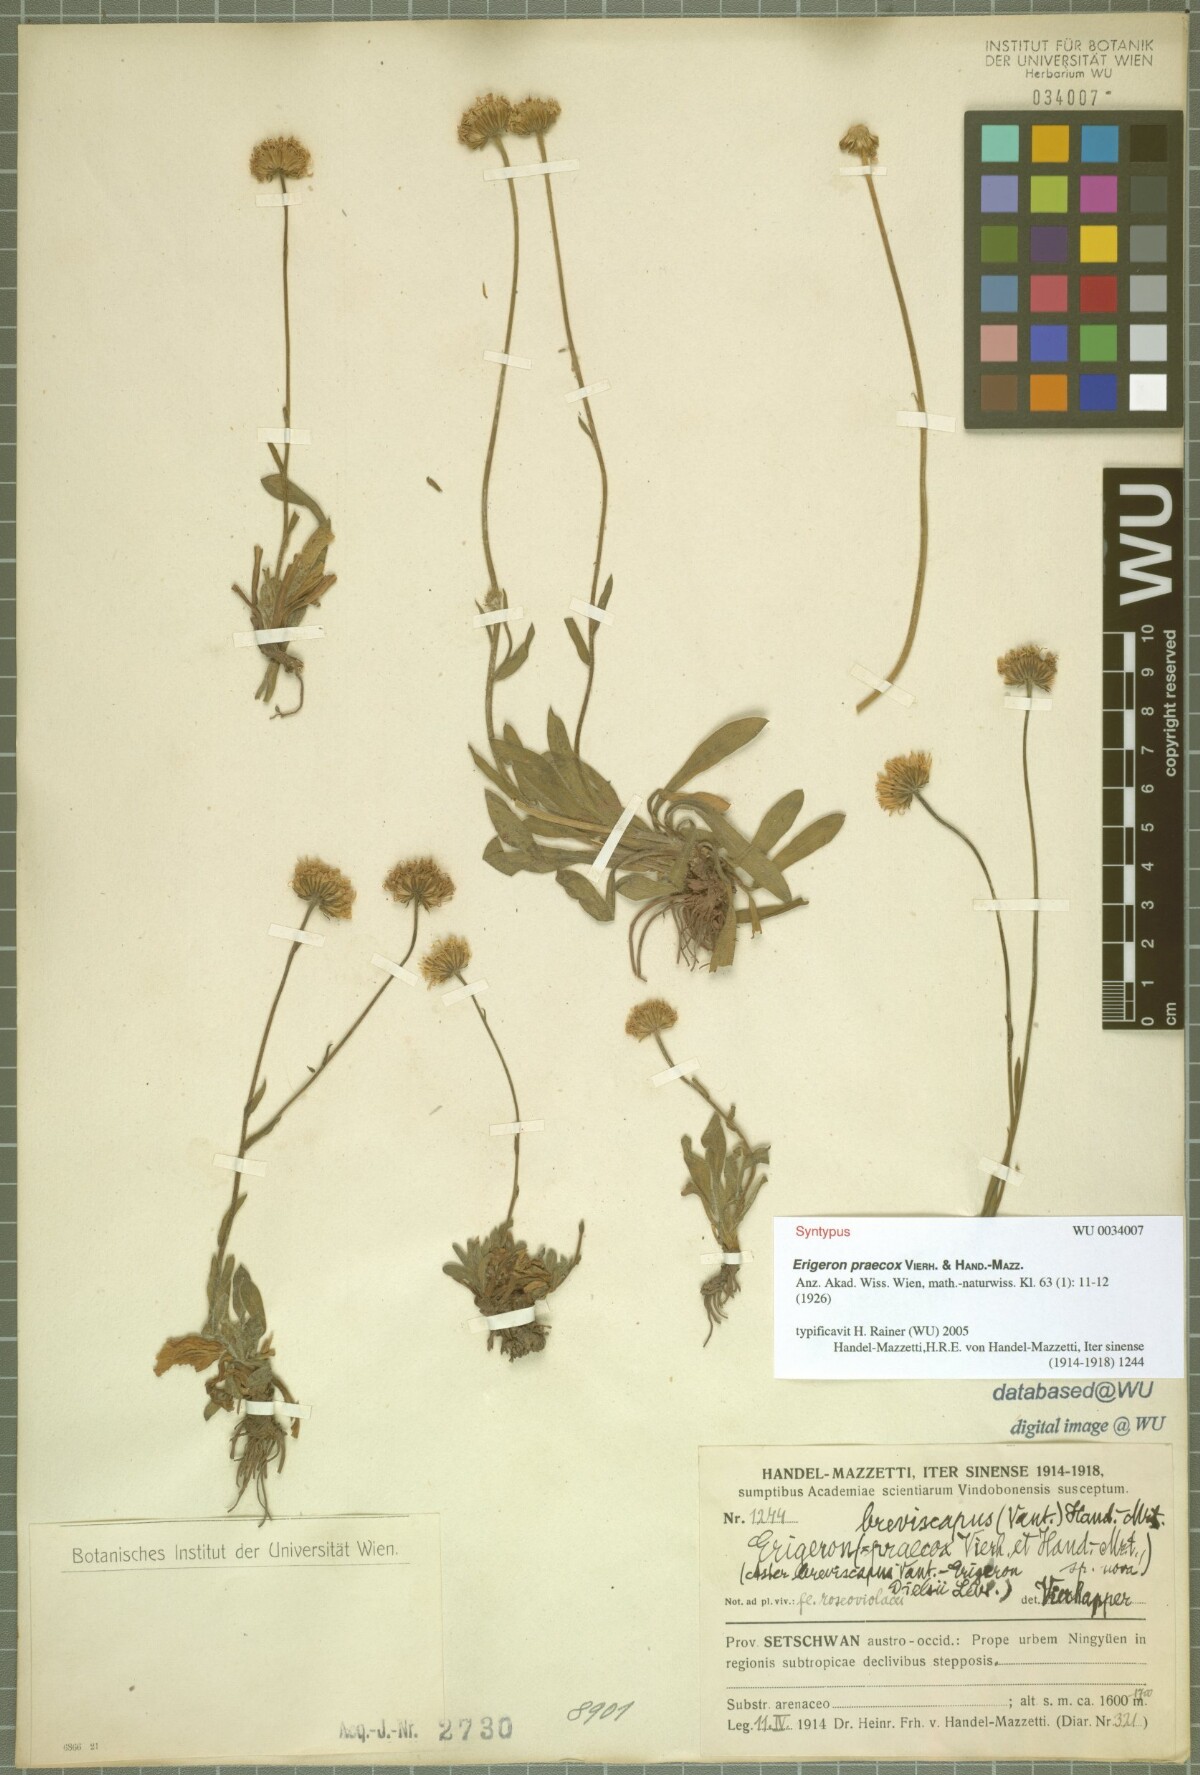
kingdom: Plantae
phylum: Tracheophyta
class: Magnoliopsida
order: Asterales
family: Asteraceae
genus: Erigeron
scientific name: Erigeron breviscapus
